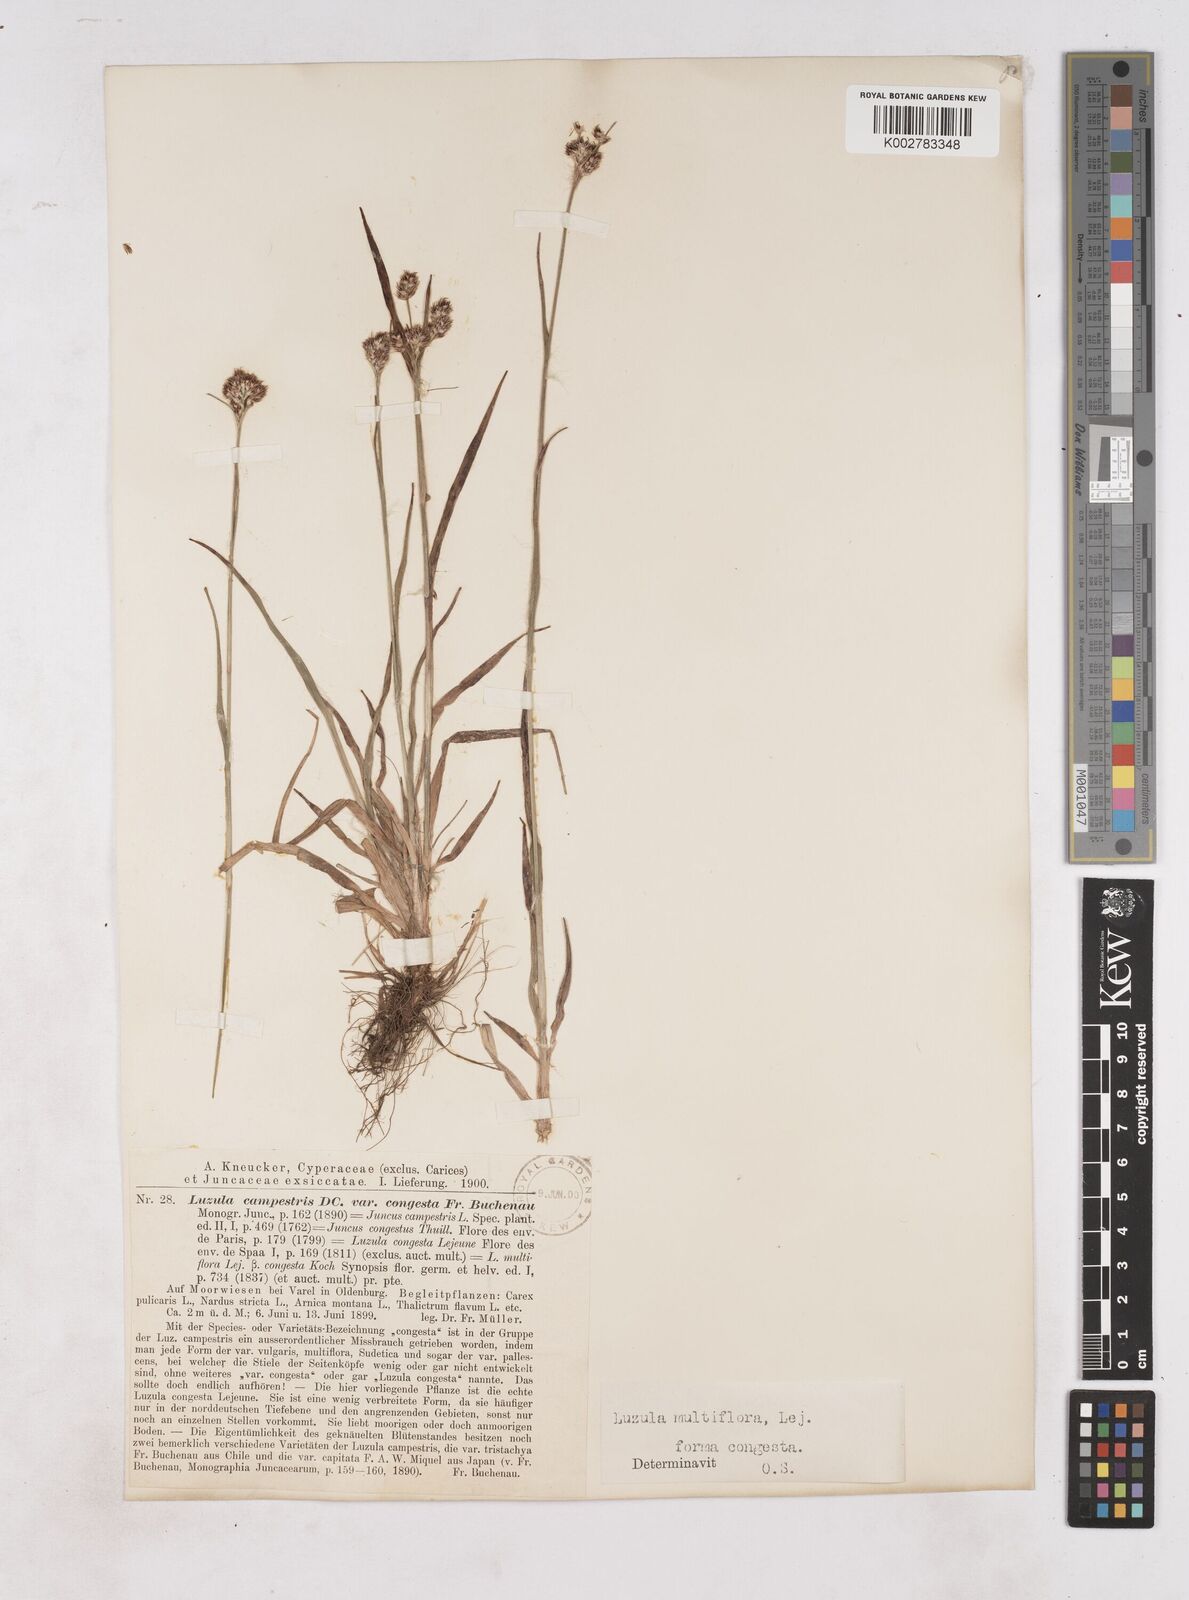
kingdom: Plantae
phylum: Tracheophyta
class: Liliopsida
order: Poales
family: Juncaceae
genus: Luzula
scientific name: Luzula multiflora
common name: Heath wood-rush
